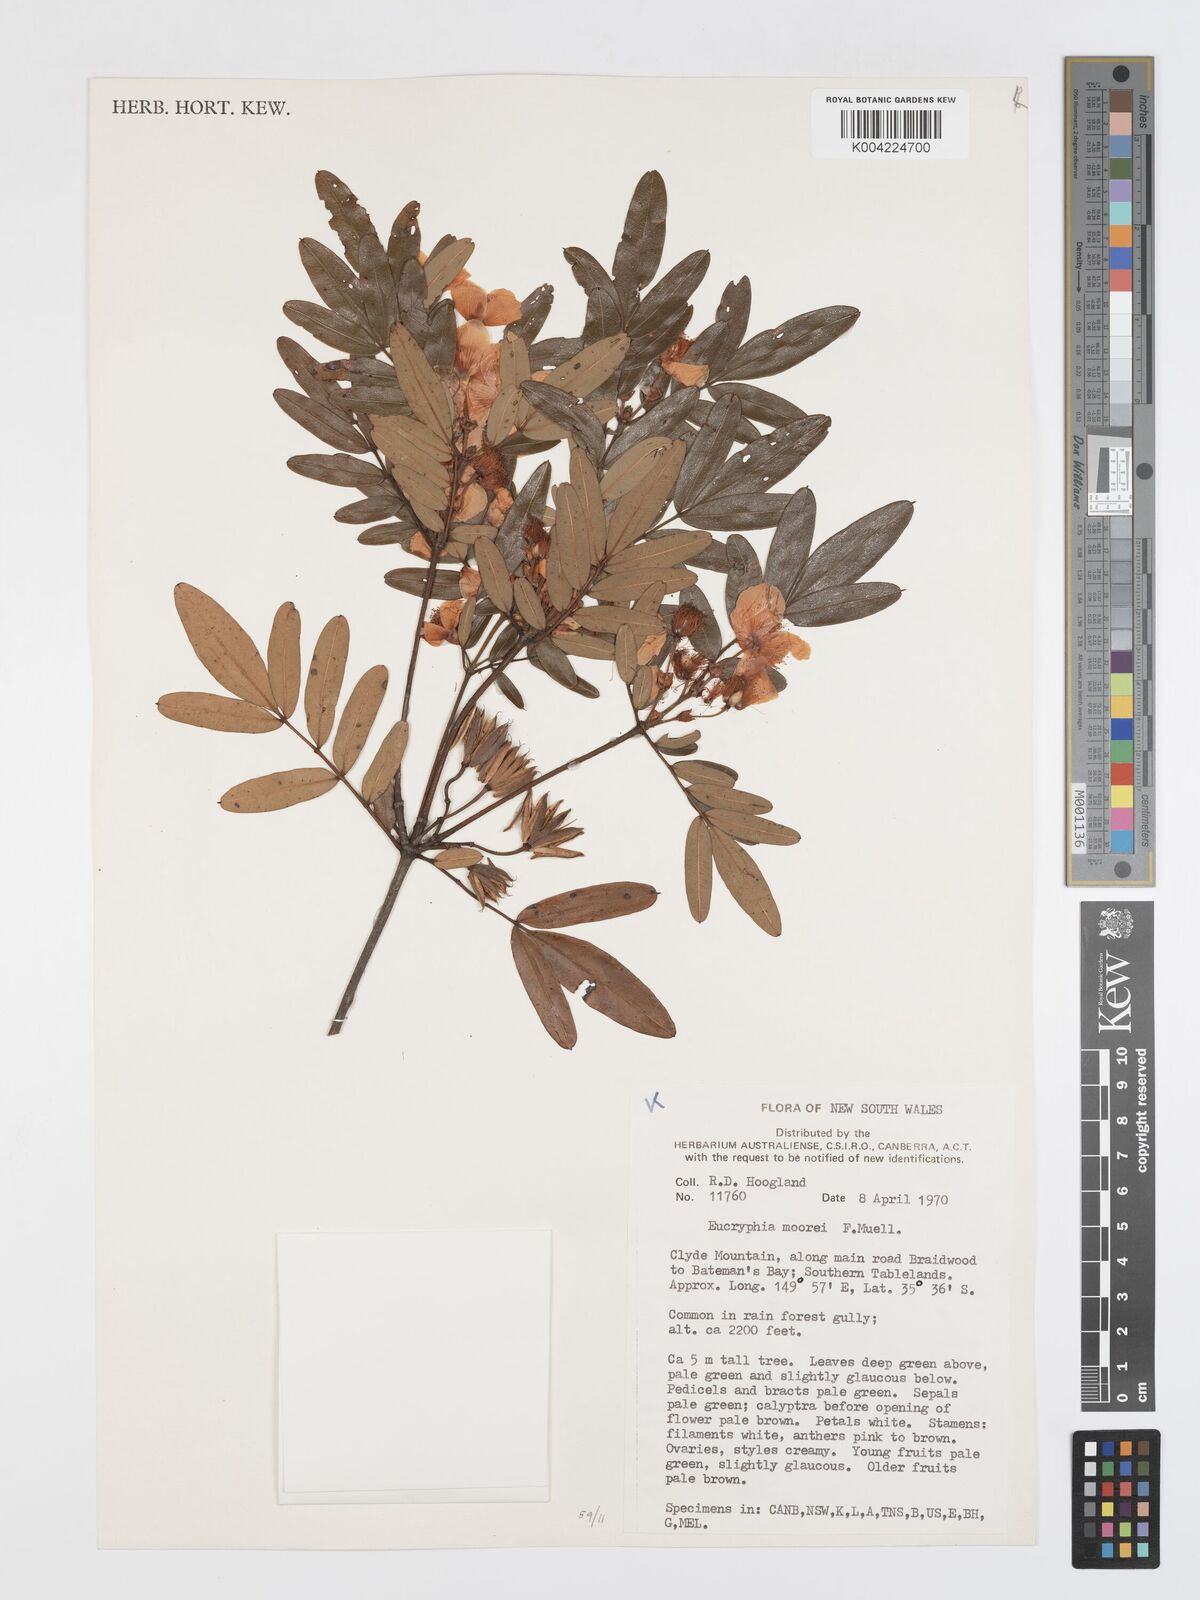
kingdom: Plantae
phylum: Tracheophyta
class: Magnoliopsida
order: Oxalidales
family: Cunoniaceae
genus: Eucryphia
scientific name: Eucryphia moorei
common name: Acacia-plum
